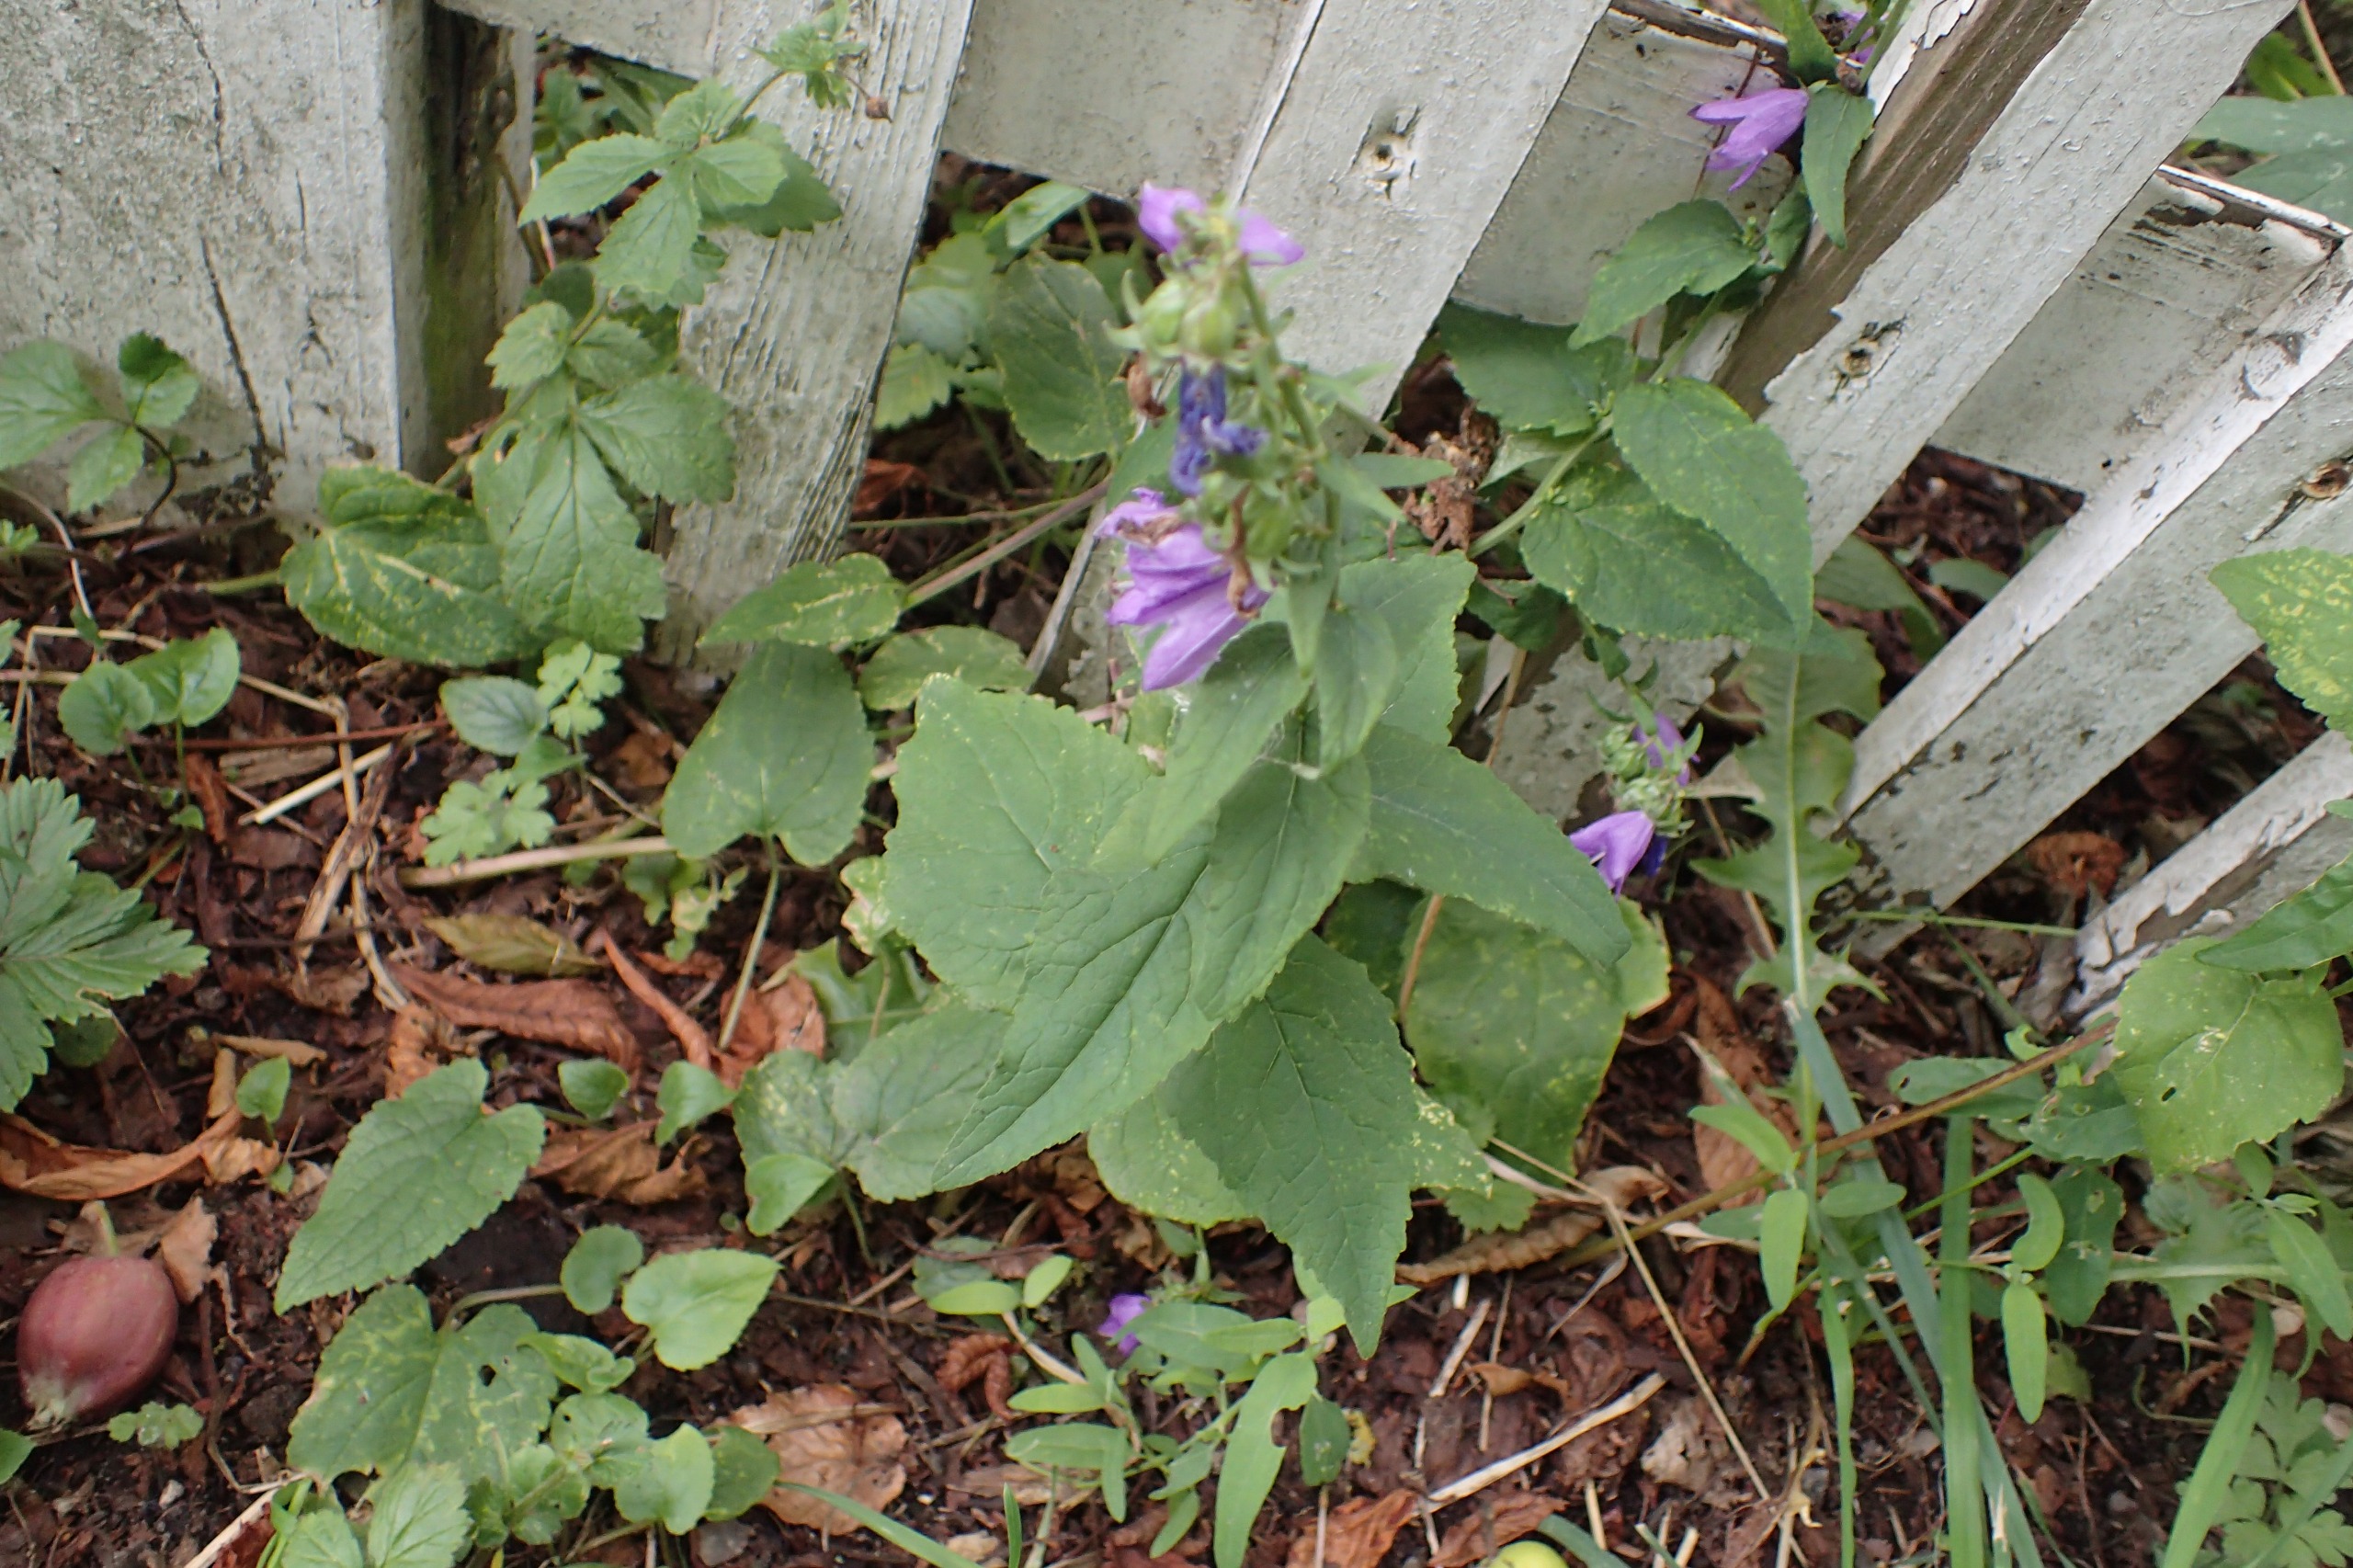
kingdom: Plantae
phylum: Tracheophyta
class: Magnoliopsida
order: Asterales
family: Campanulaceae
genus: Campanula
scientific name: Campanula rapunculoides
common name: Ensidig klokke
